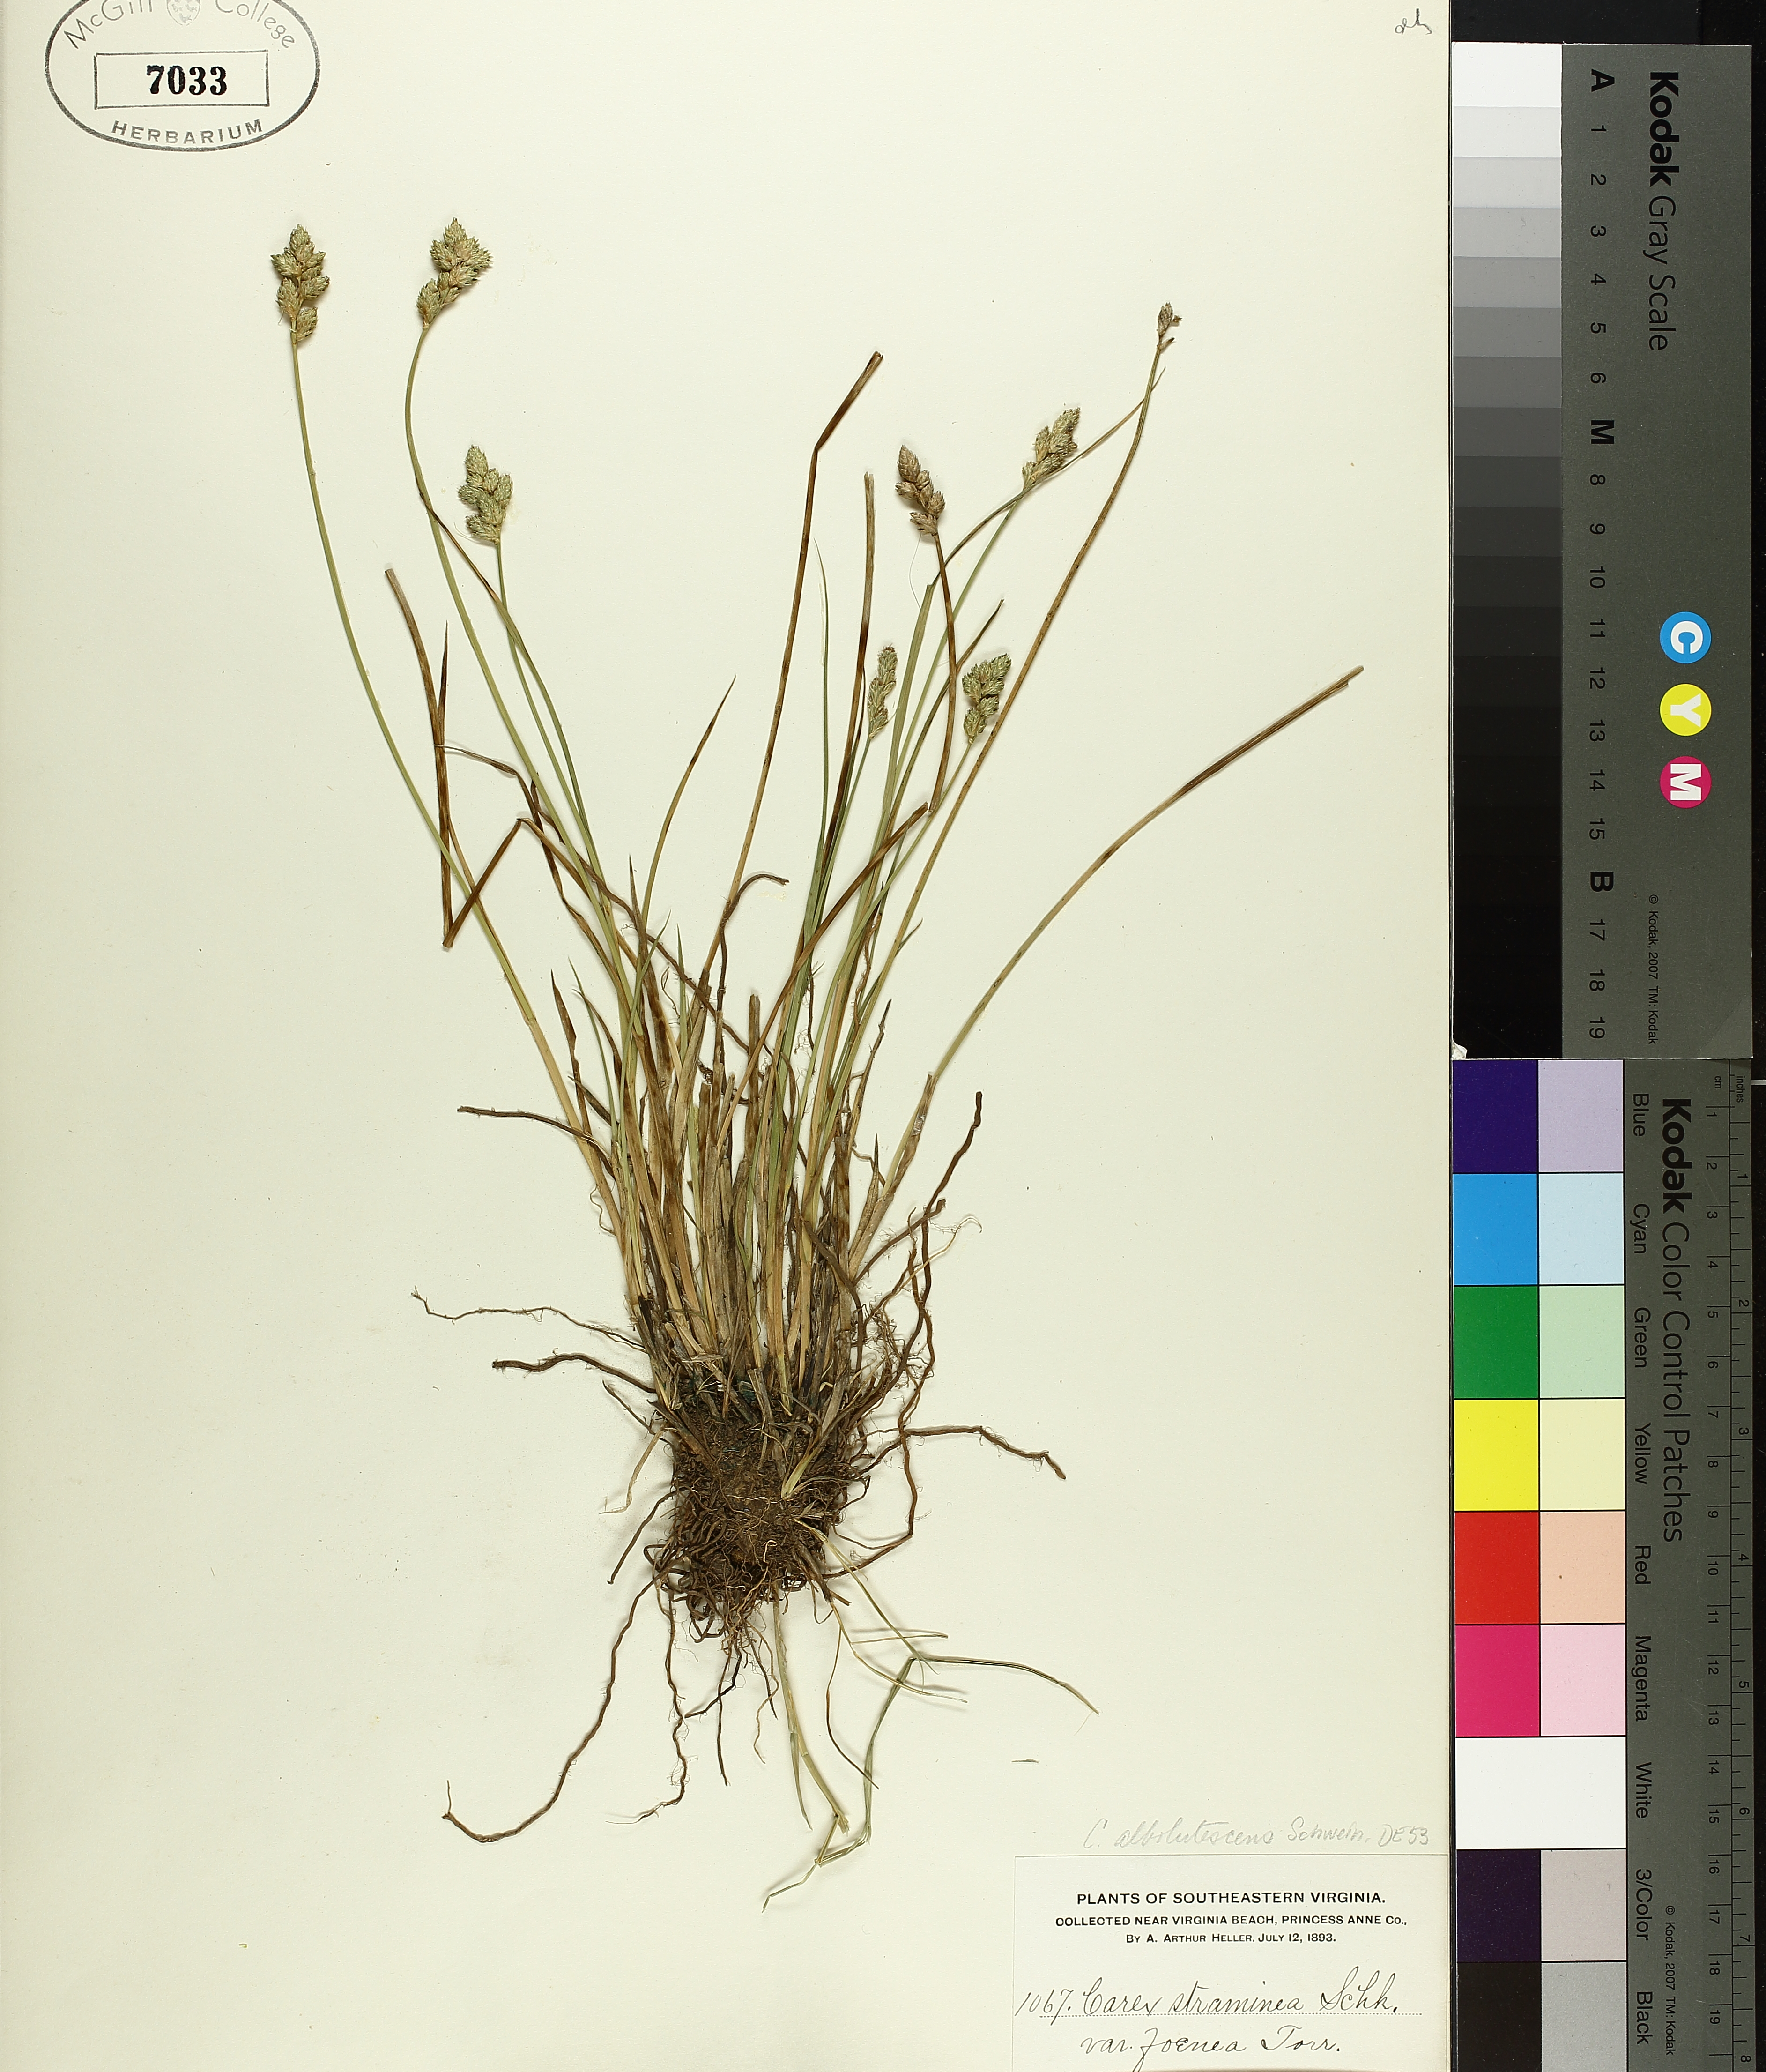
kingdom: Plantae
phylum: Tracheophyta
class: Liliopsida
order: Poales
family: Cyperaceae
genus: Carex
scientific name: Carex albolutescens
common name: Freenish white sedge
